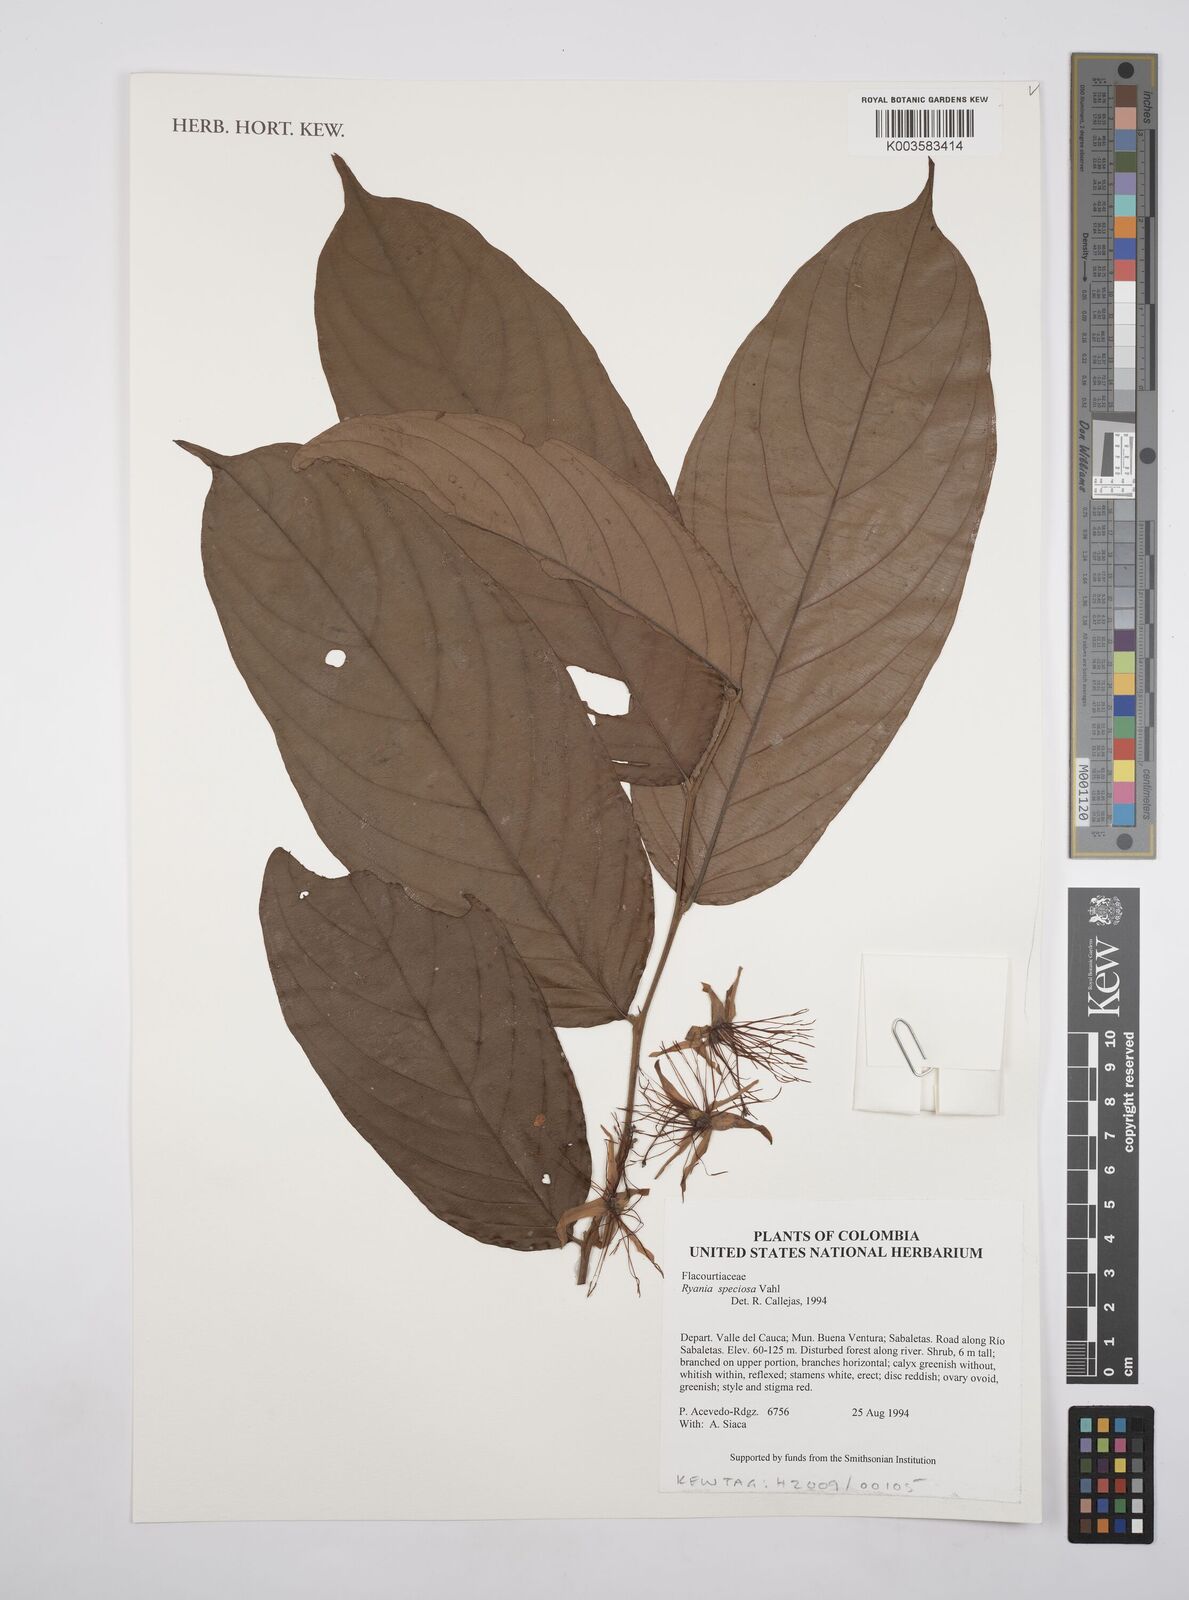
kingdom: Plantae
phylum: Tracheophyta
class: Magnoliopsida
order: Malpighiales
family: Salicaceae
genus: Ryania
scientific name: Ryania speciosa
